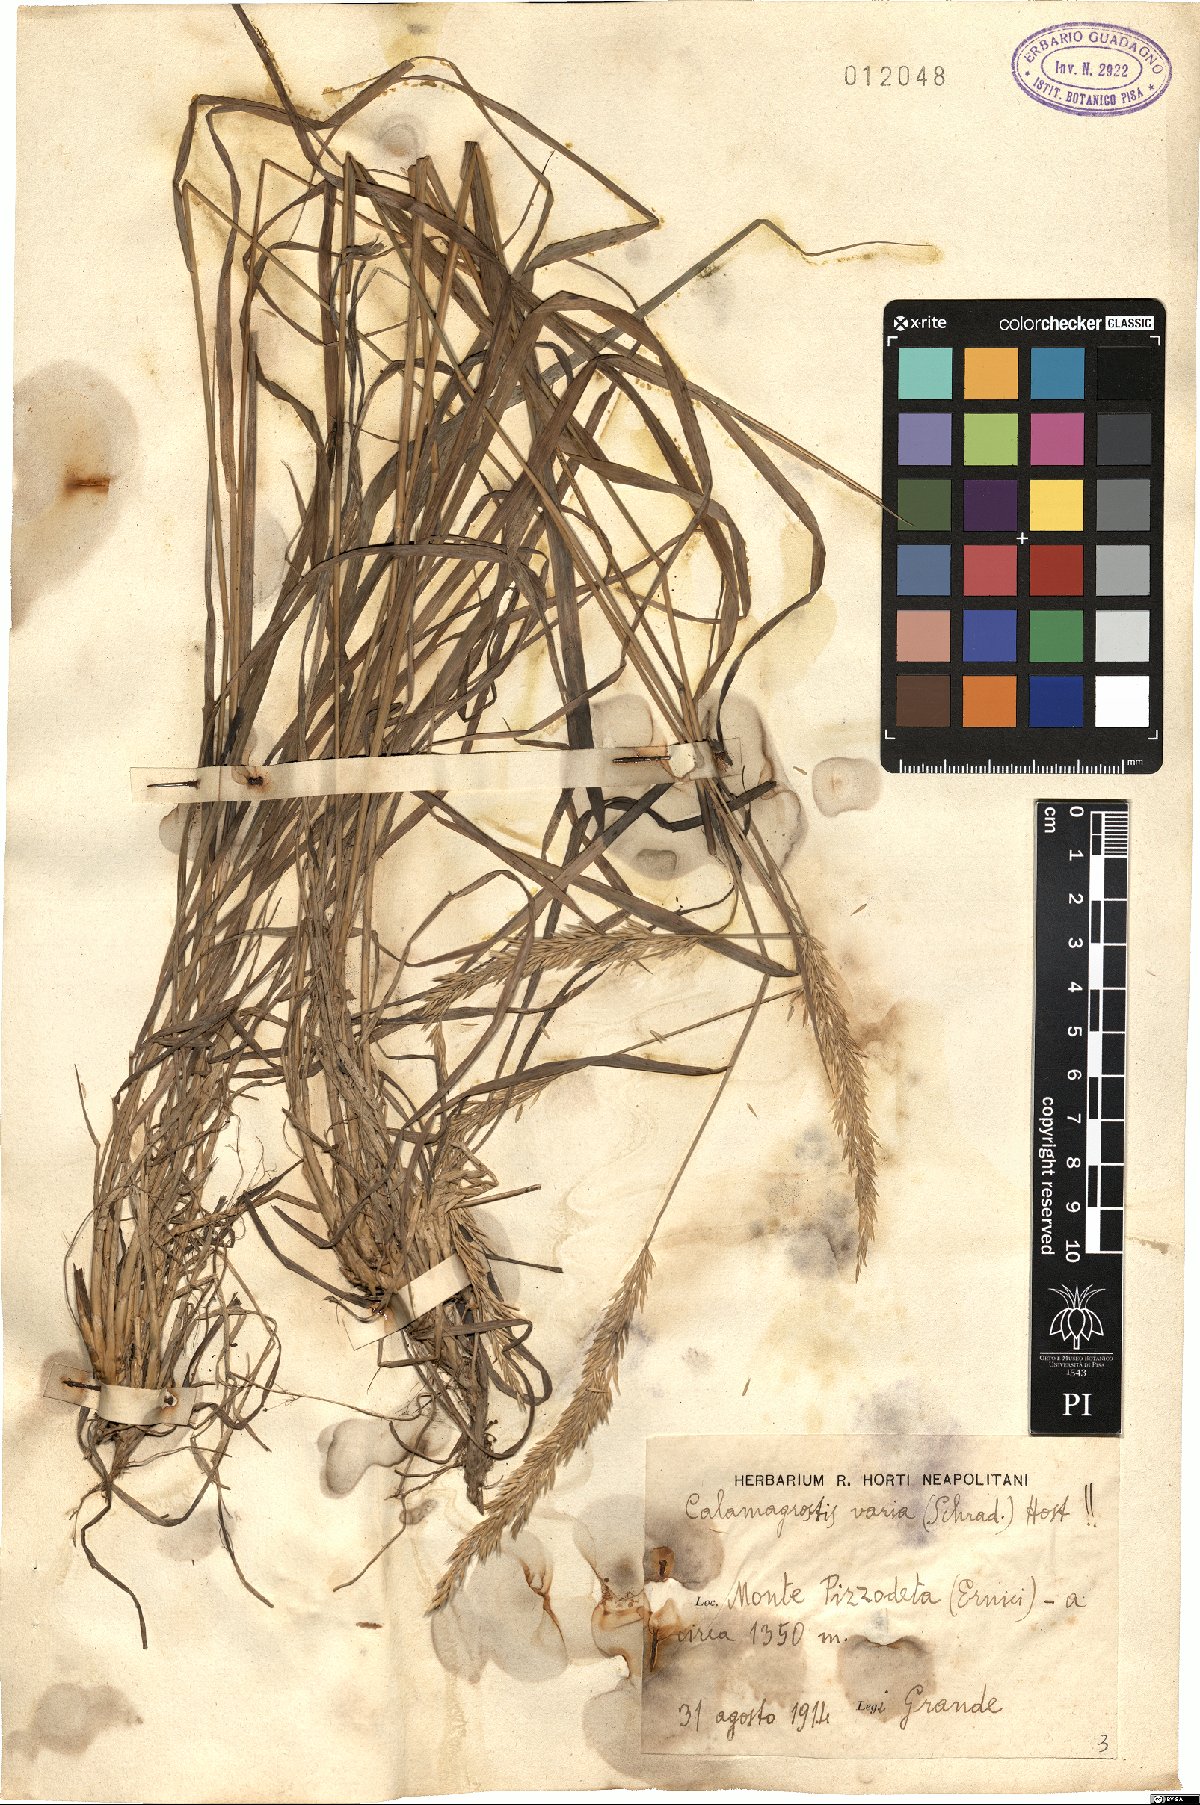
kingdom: Plantae
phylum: Tracheophyta
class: Liliopsida
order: Poales
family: Poaceae
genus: Calamagrostis
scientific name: Calamagrostis varia
